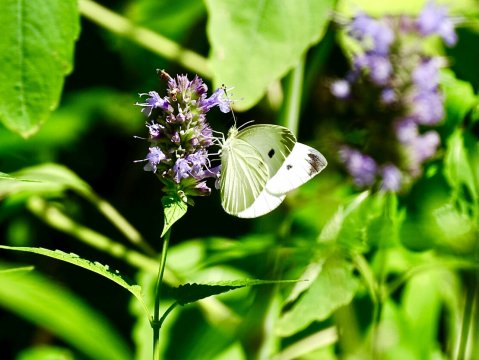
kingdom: Animalia
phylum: Arthropoda
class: Insecta
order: Lepidoptera
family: Pieridae
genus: Pieris
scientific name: Pieris rapae
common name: Cabbage White
